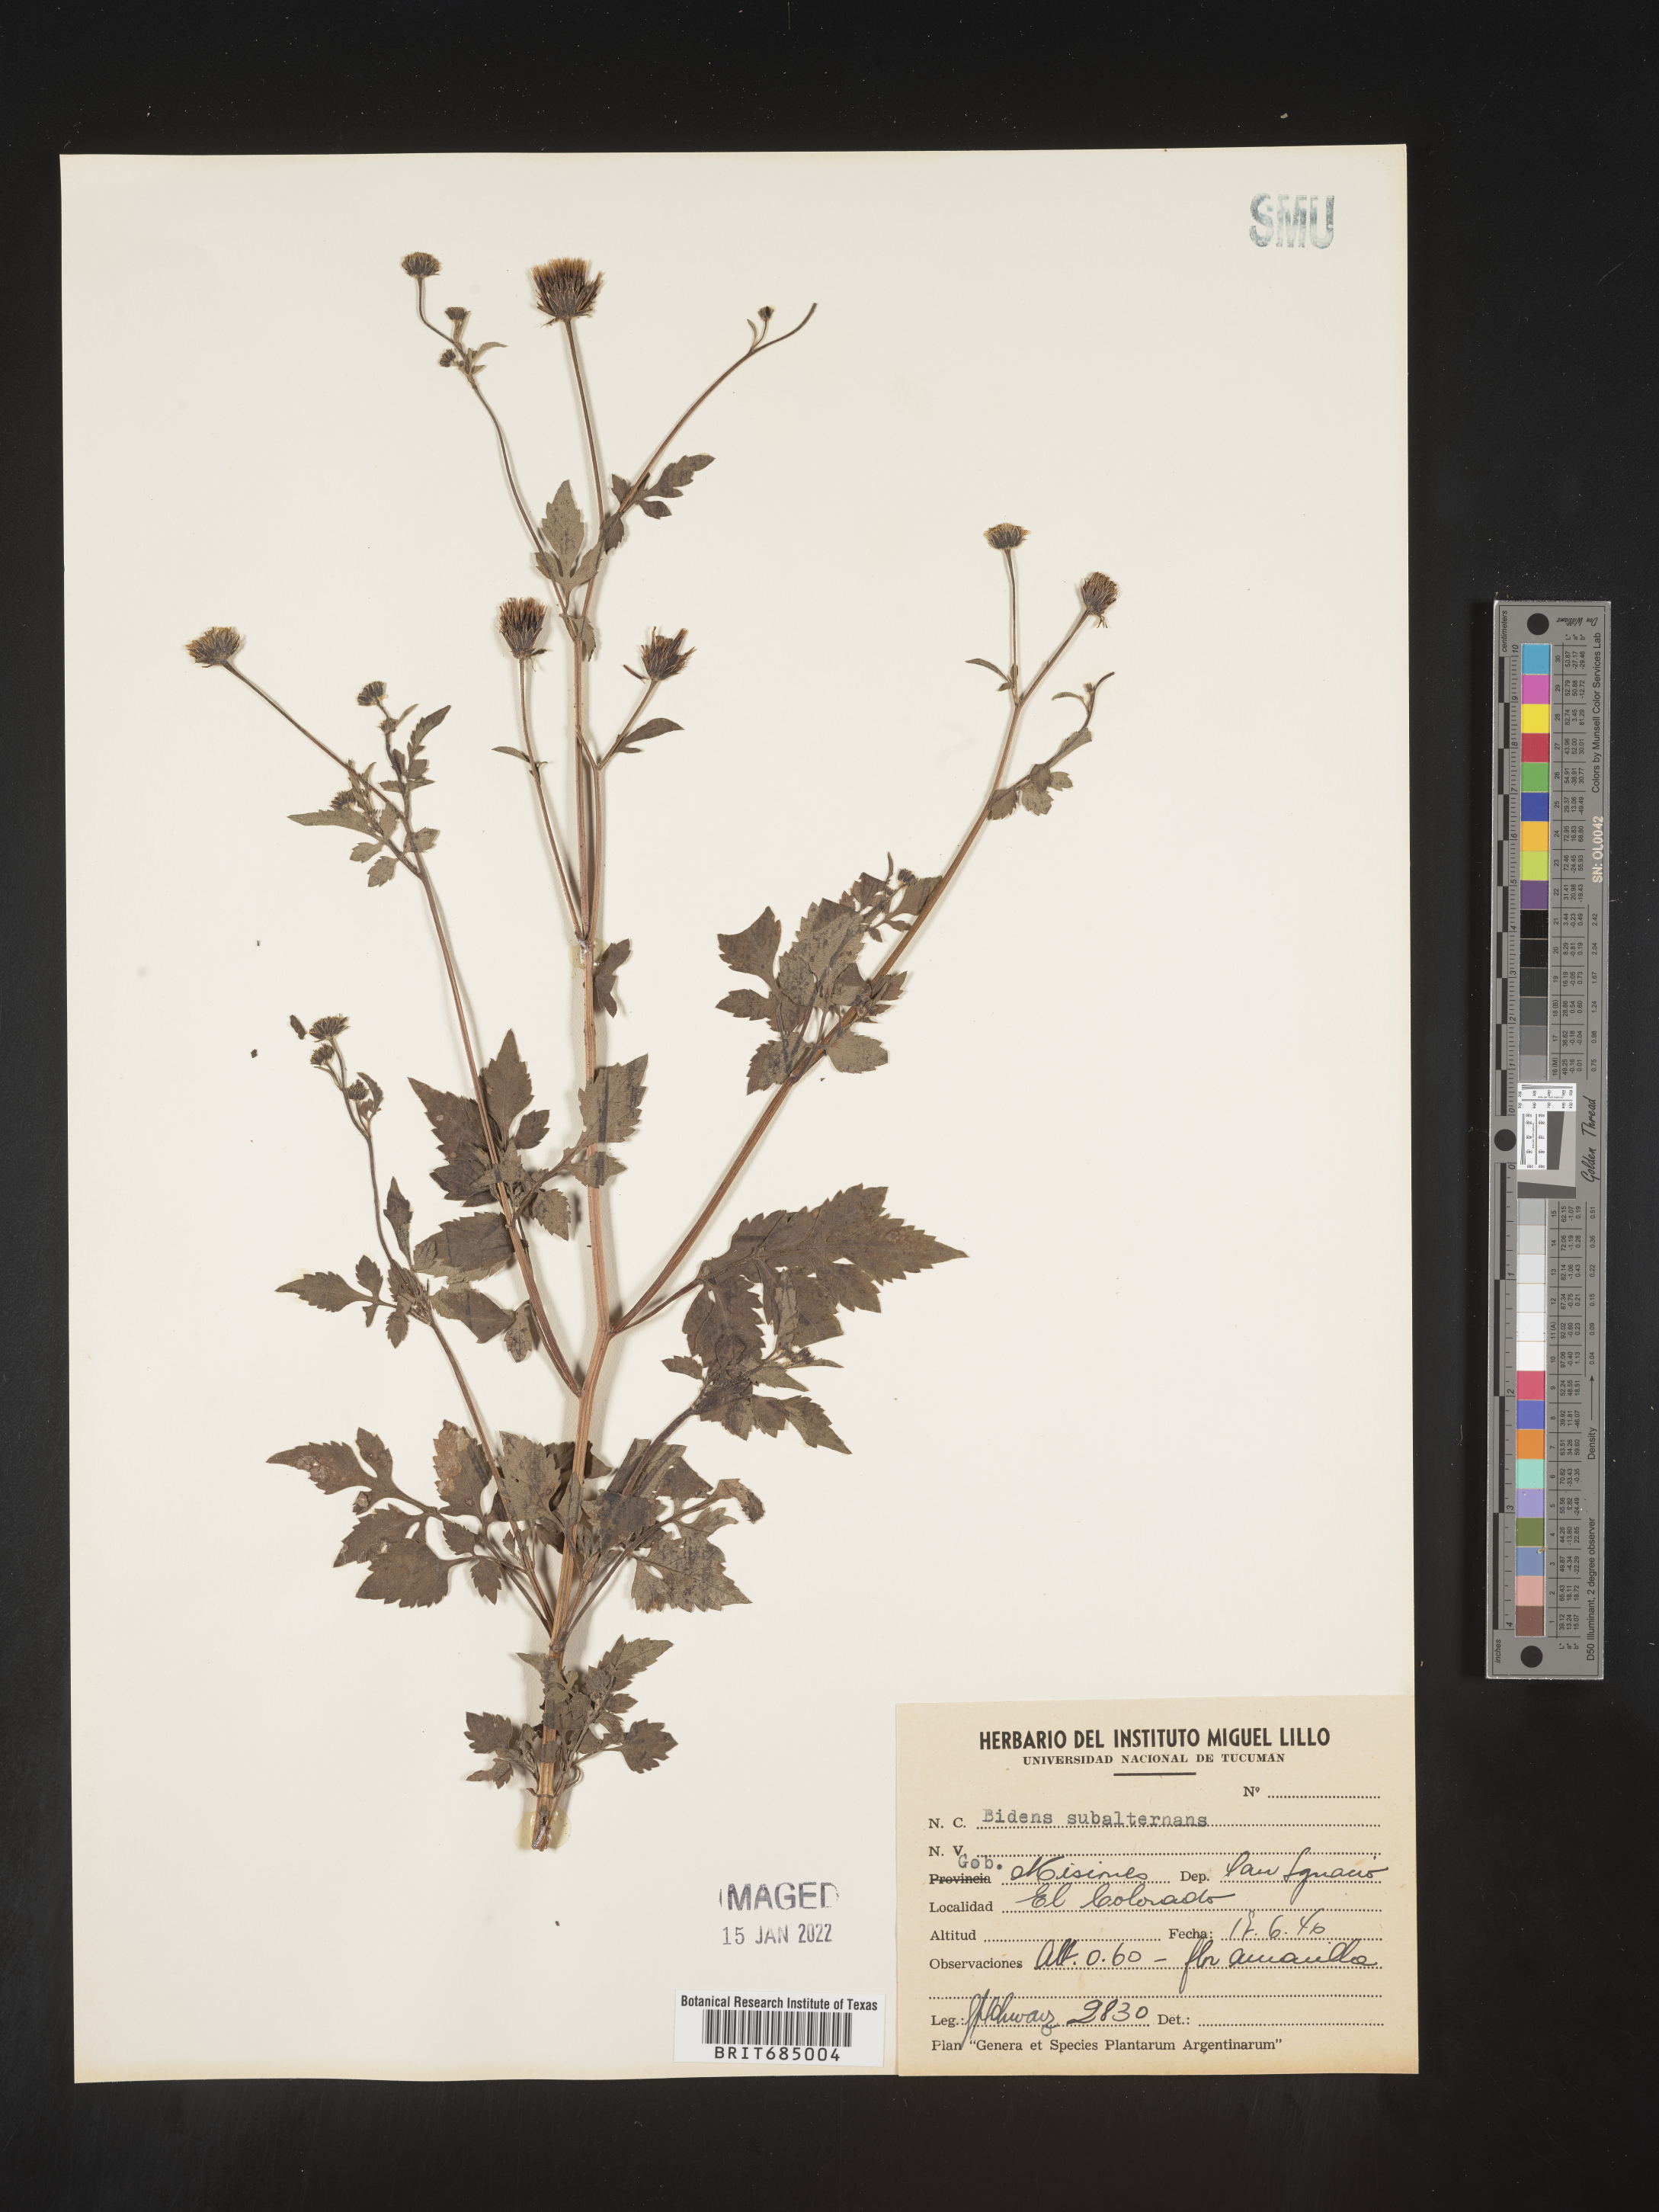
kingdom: Plantae
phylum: Tracheophyta
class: Magnoliopsida
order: Asterales
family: Asteraceae
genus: Bidens
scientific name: Bidens rubifolia
